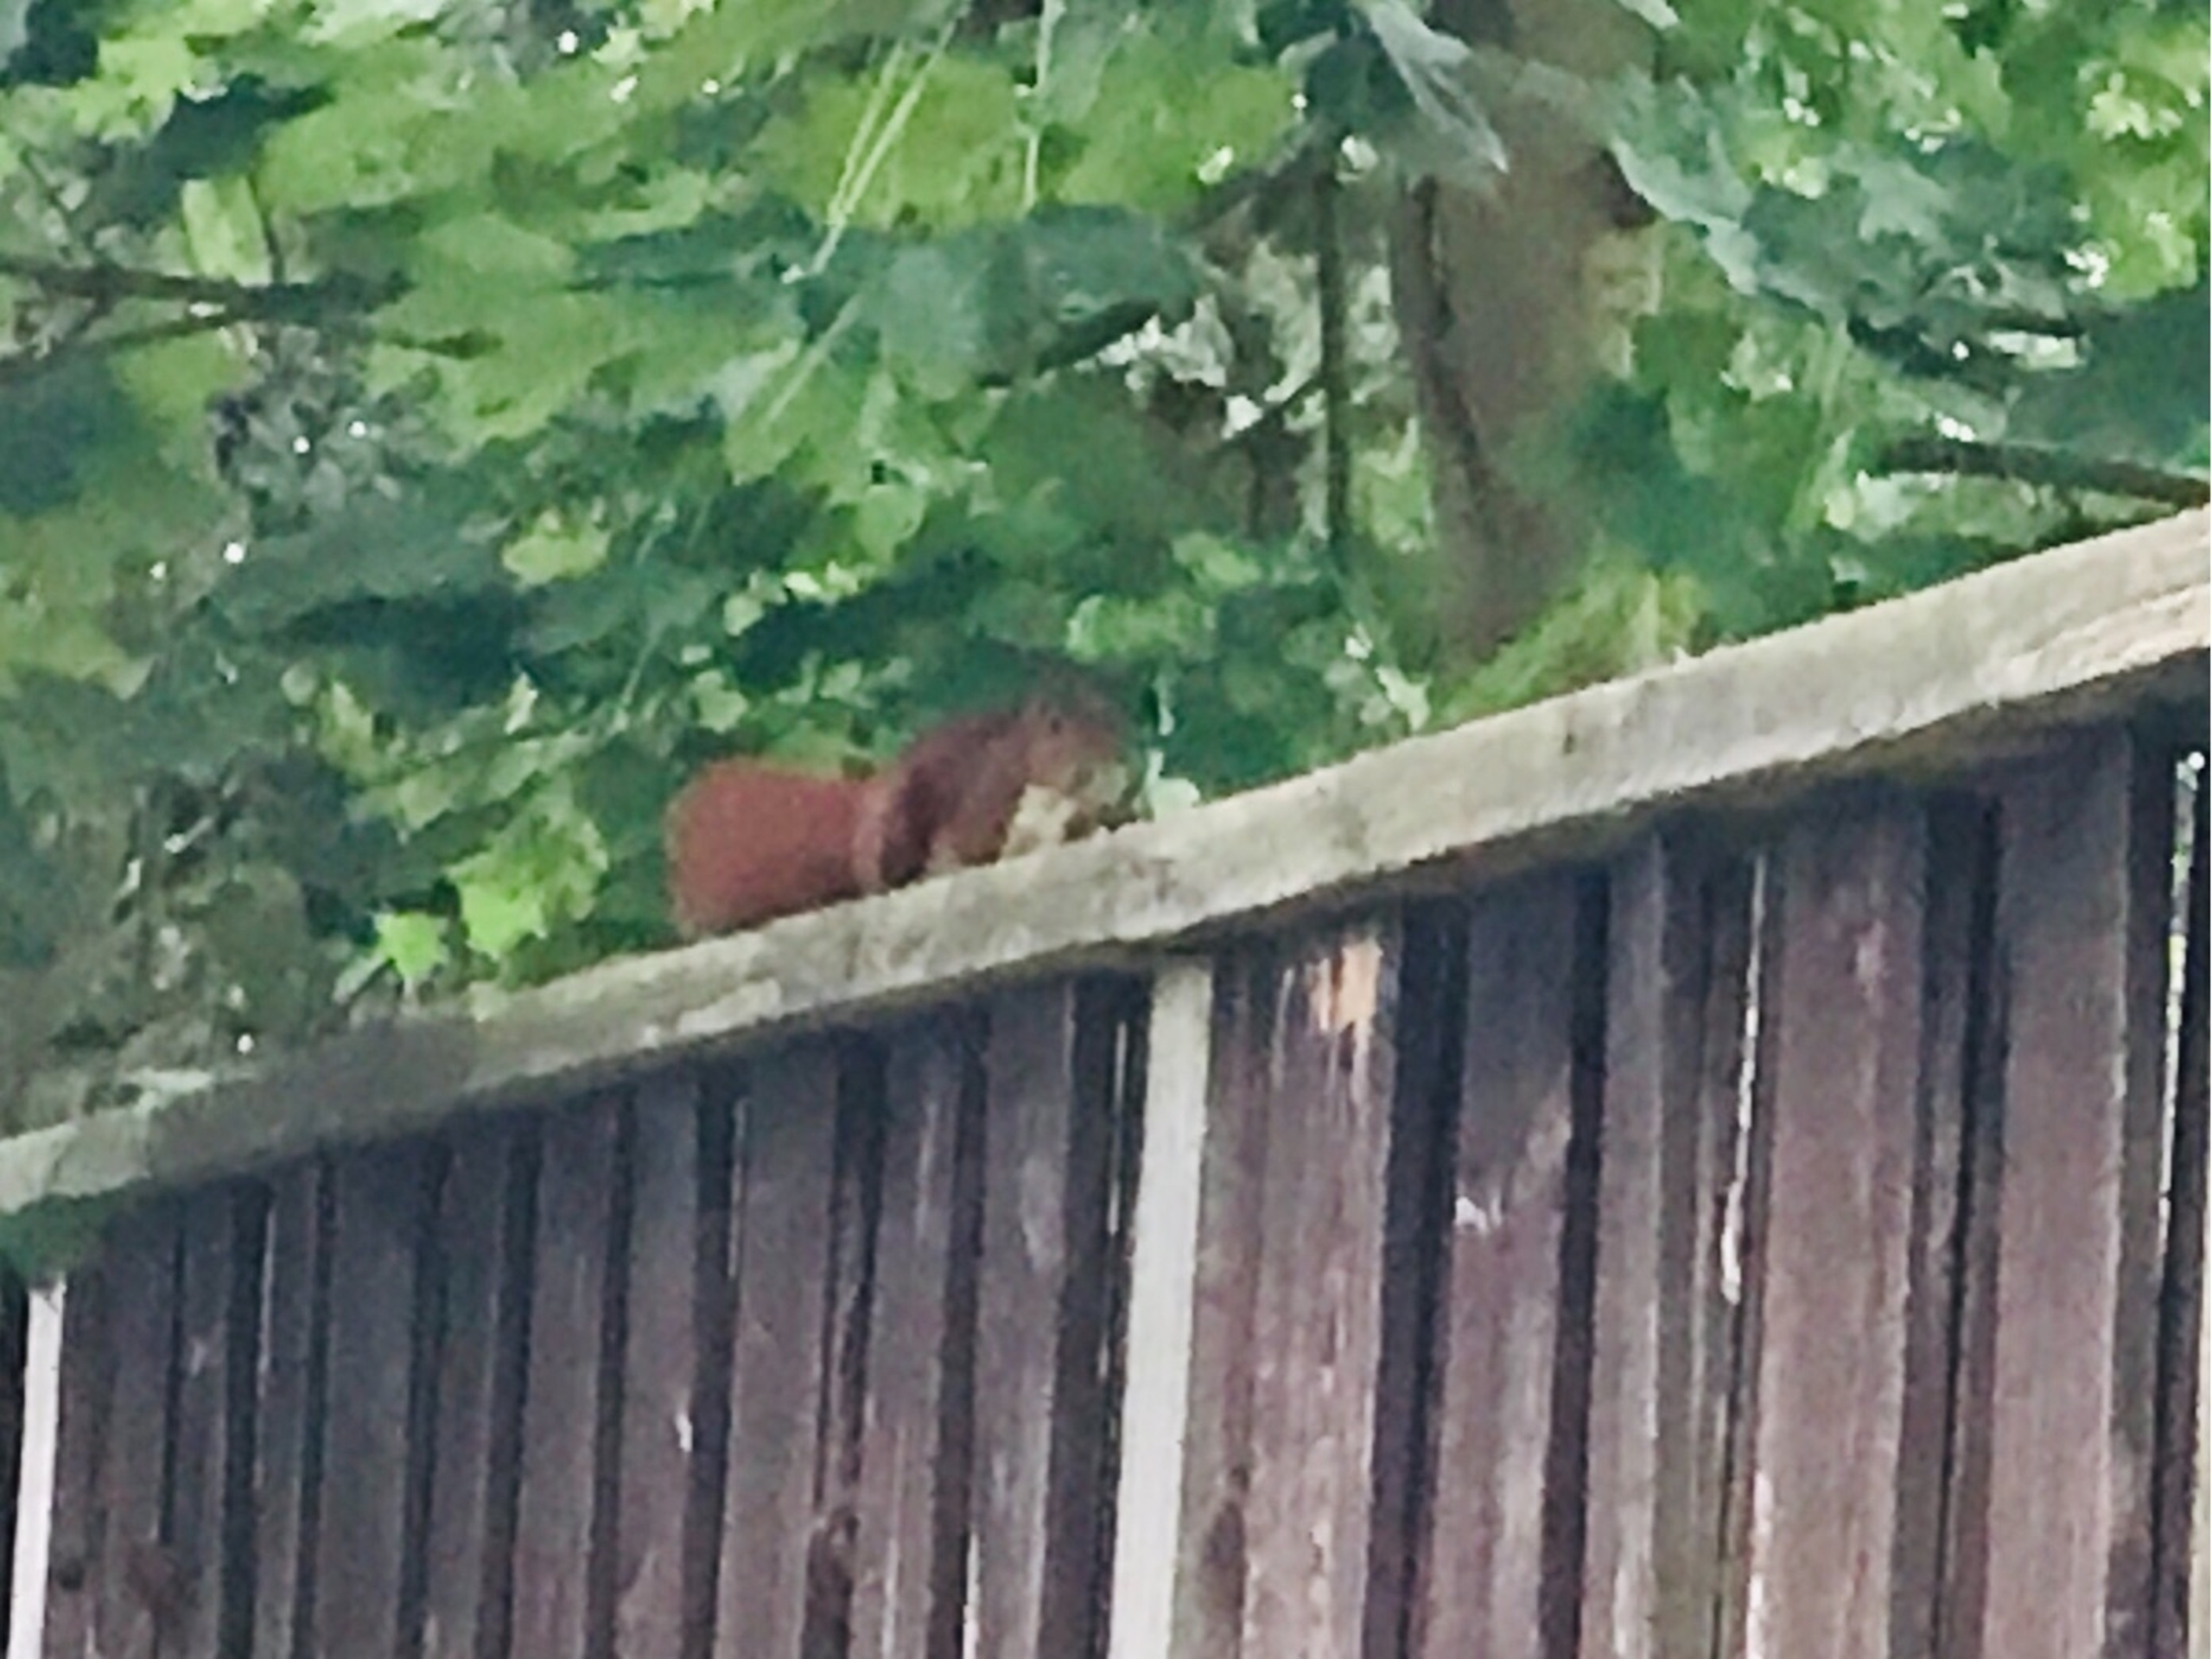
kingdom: Animalia
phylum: Chordata
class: Mammalia
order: Rodentia
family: Sciuridae
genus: Sciurus
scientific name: Sciurus vulgaris
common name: Egern
